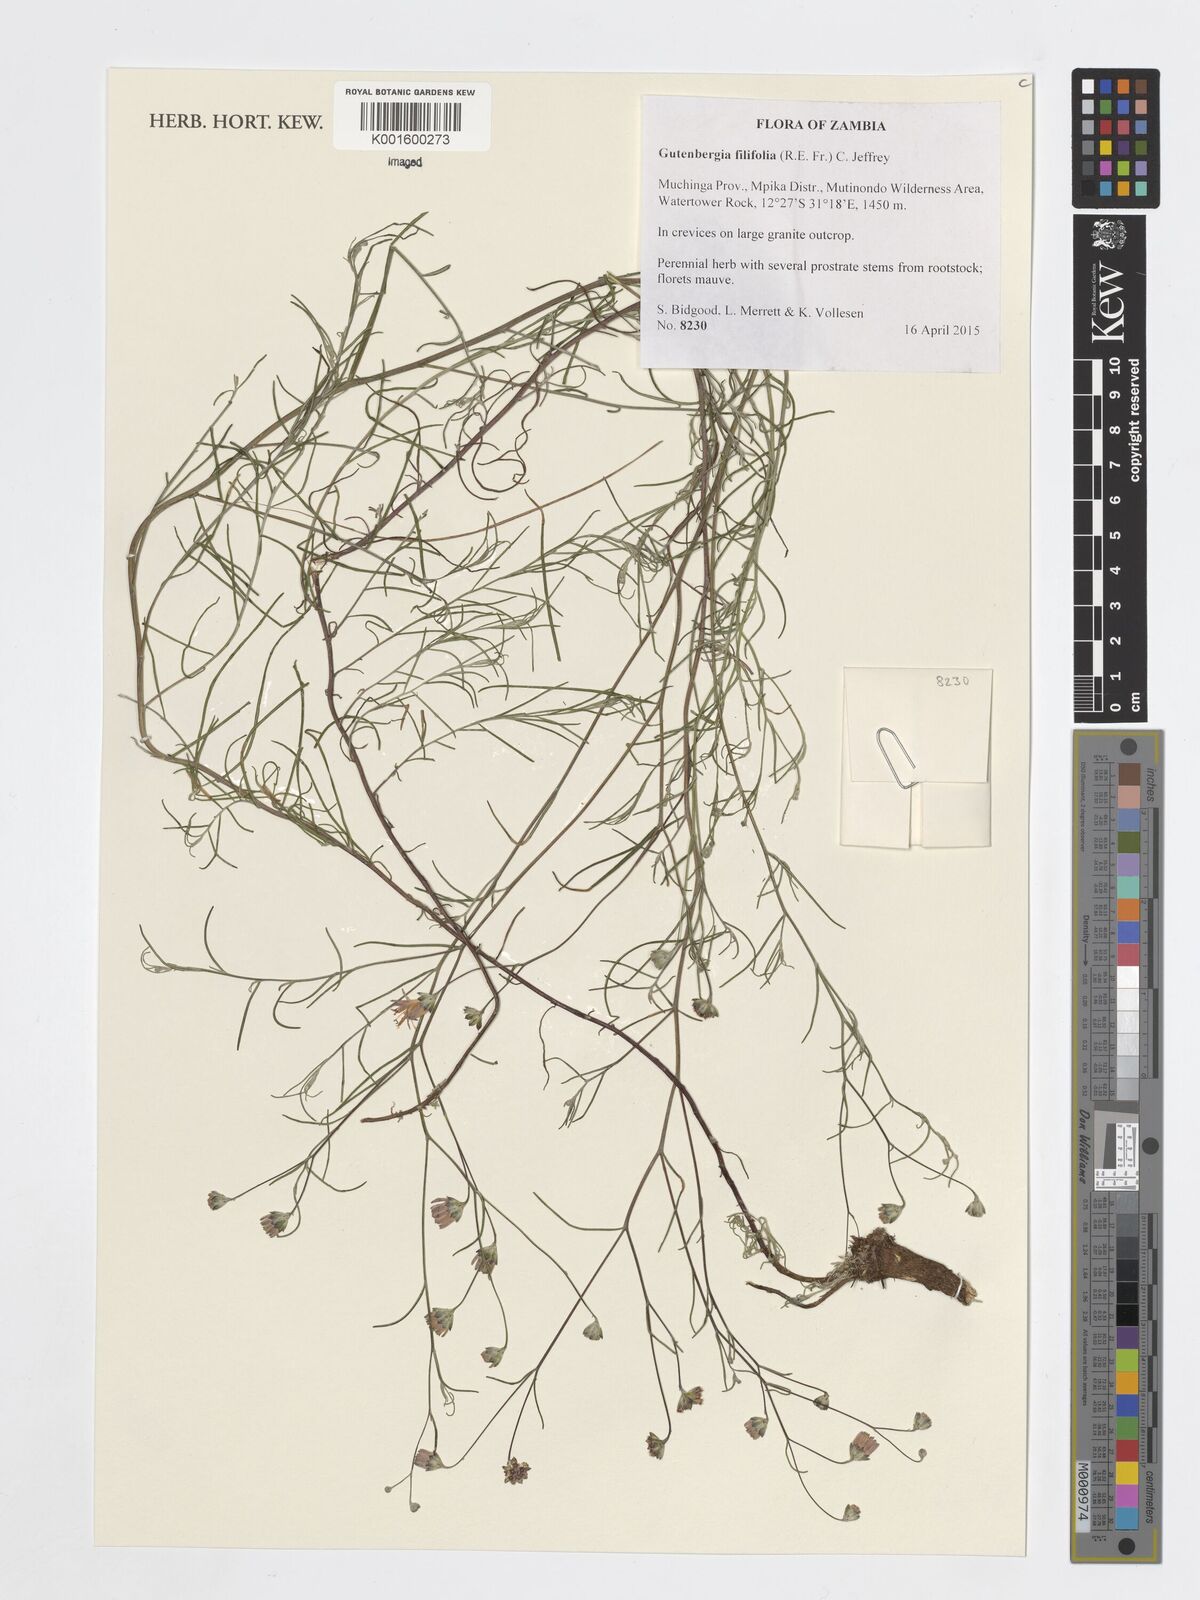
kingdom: Plantae
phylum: Tracheophyta
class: Magnoliopsida
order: Asterales
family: Asteraceae
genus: Paurolepis
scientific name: Paurolepis filifolia
